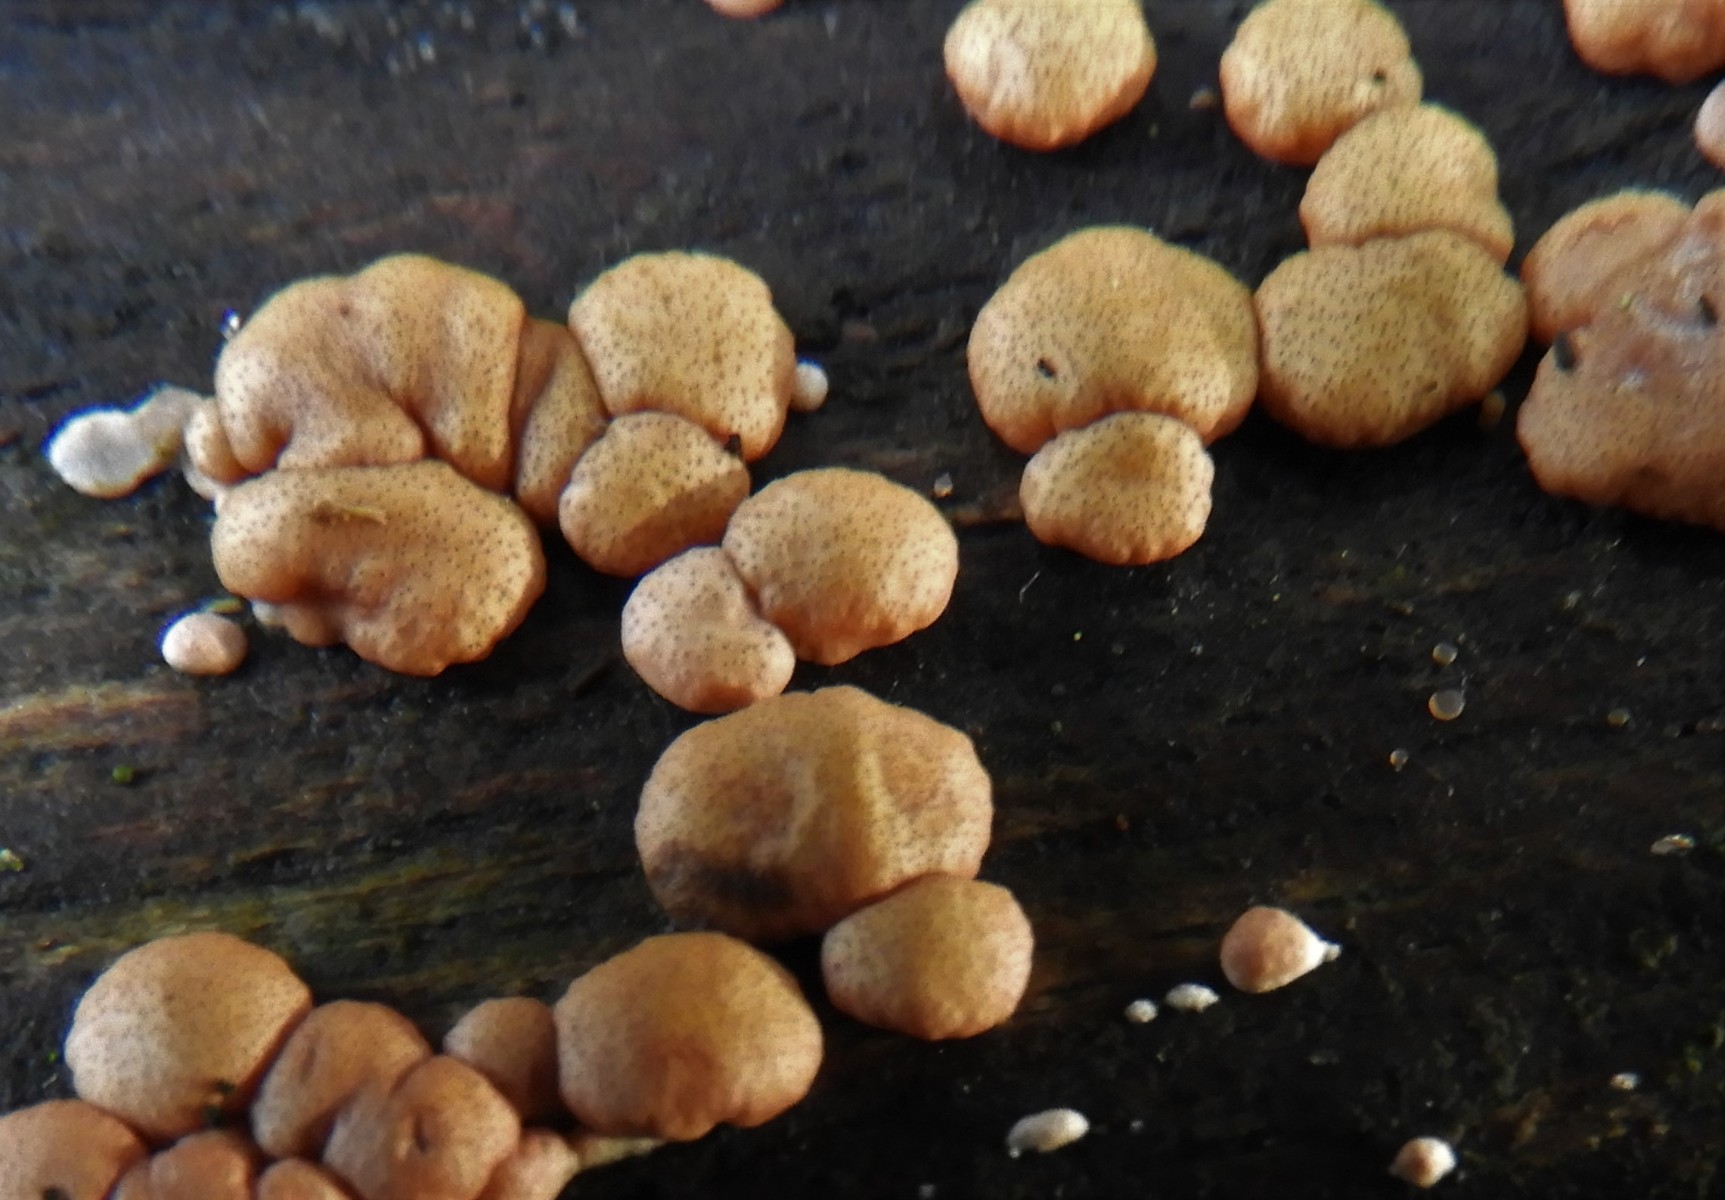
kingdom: Fungi
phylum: Ascomycota
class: Sordariomycetes
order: Hypocreales
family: Hypocreaceae
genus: Trichoderma
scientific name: Trichoderma europaeum
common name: rosabrun kødkerne
